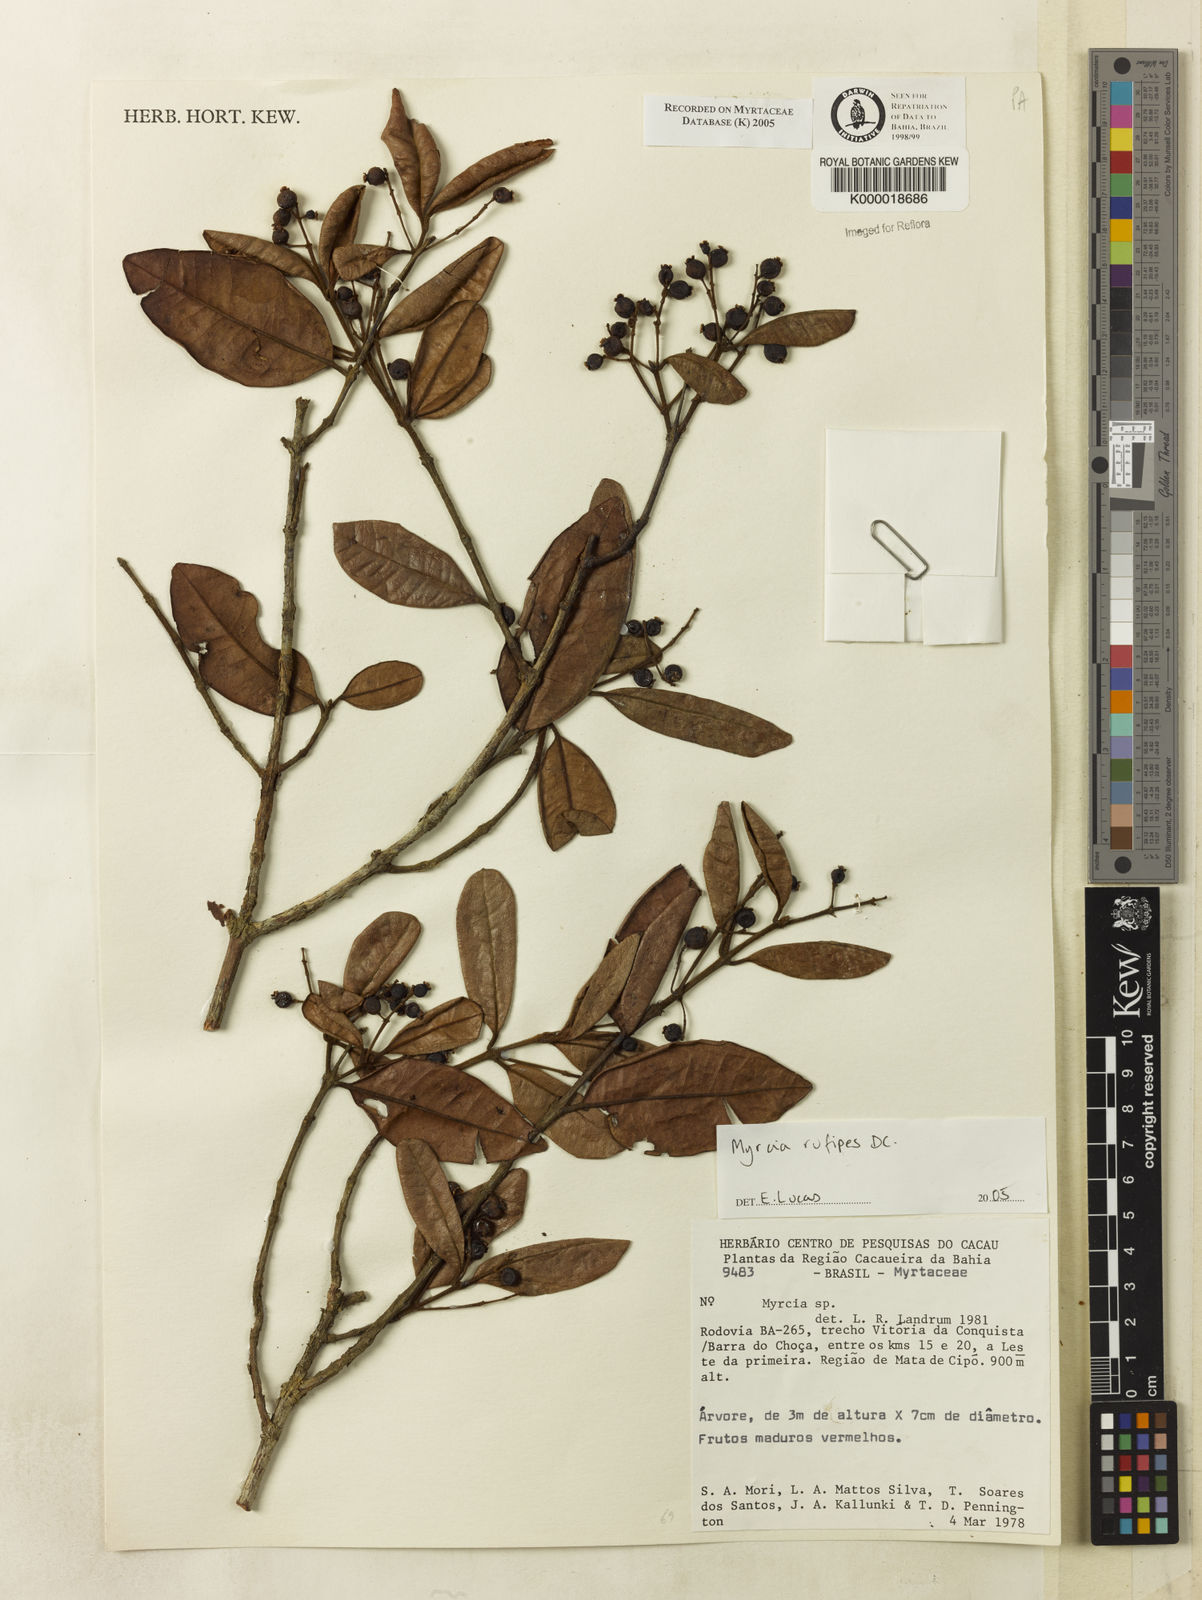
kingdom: Plantae
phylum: Tracheophyta
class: Magnoliopsida
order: Myrtales
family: Myrtaceae
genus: Myrcia
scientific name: Myrcia
